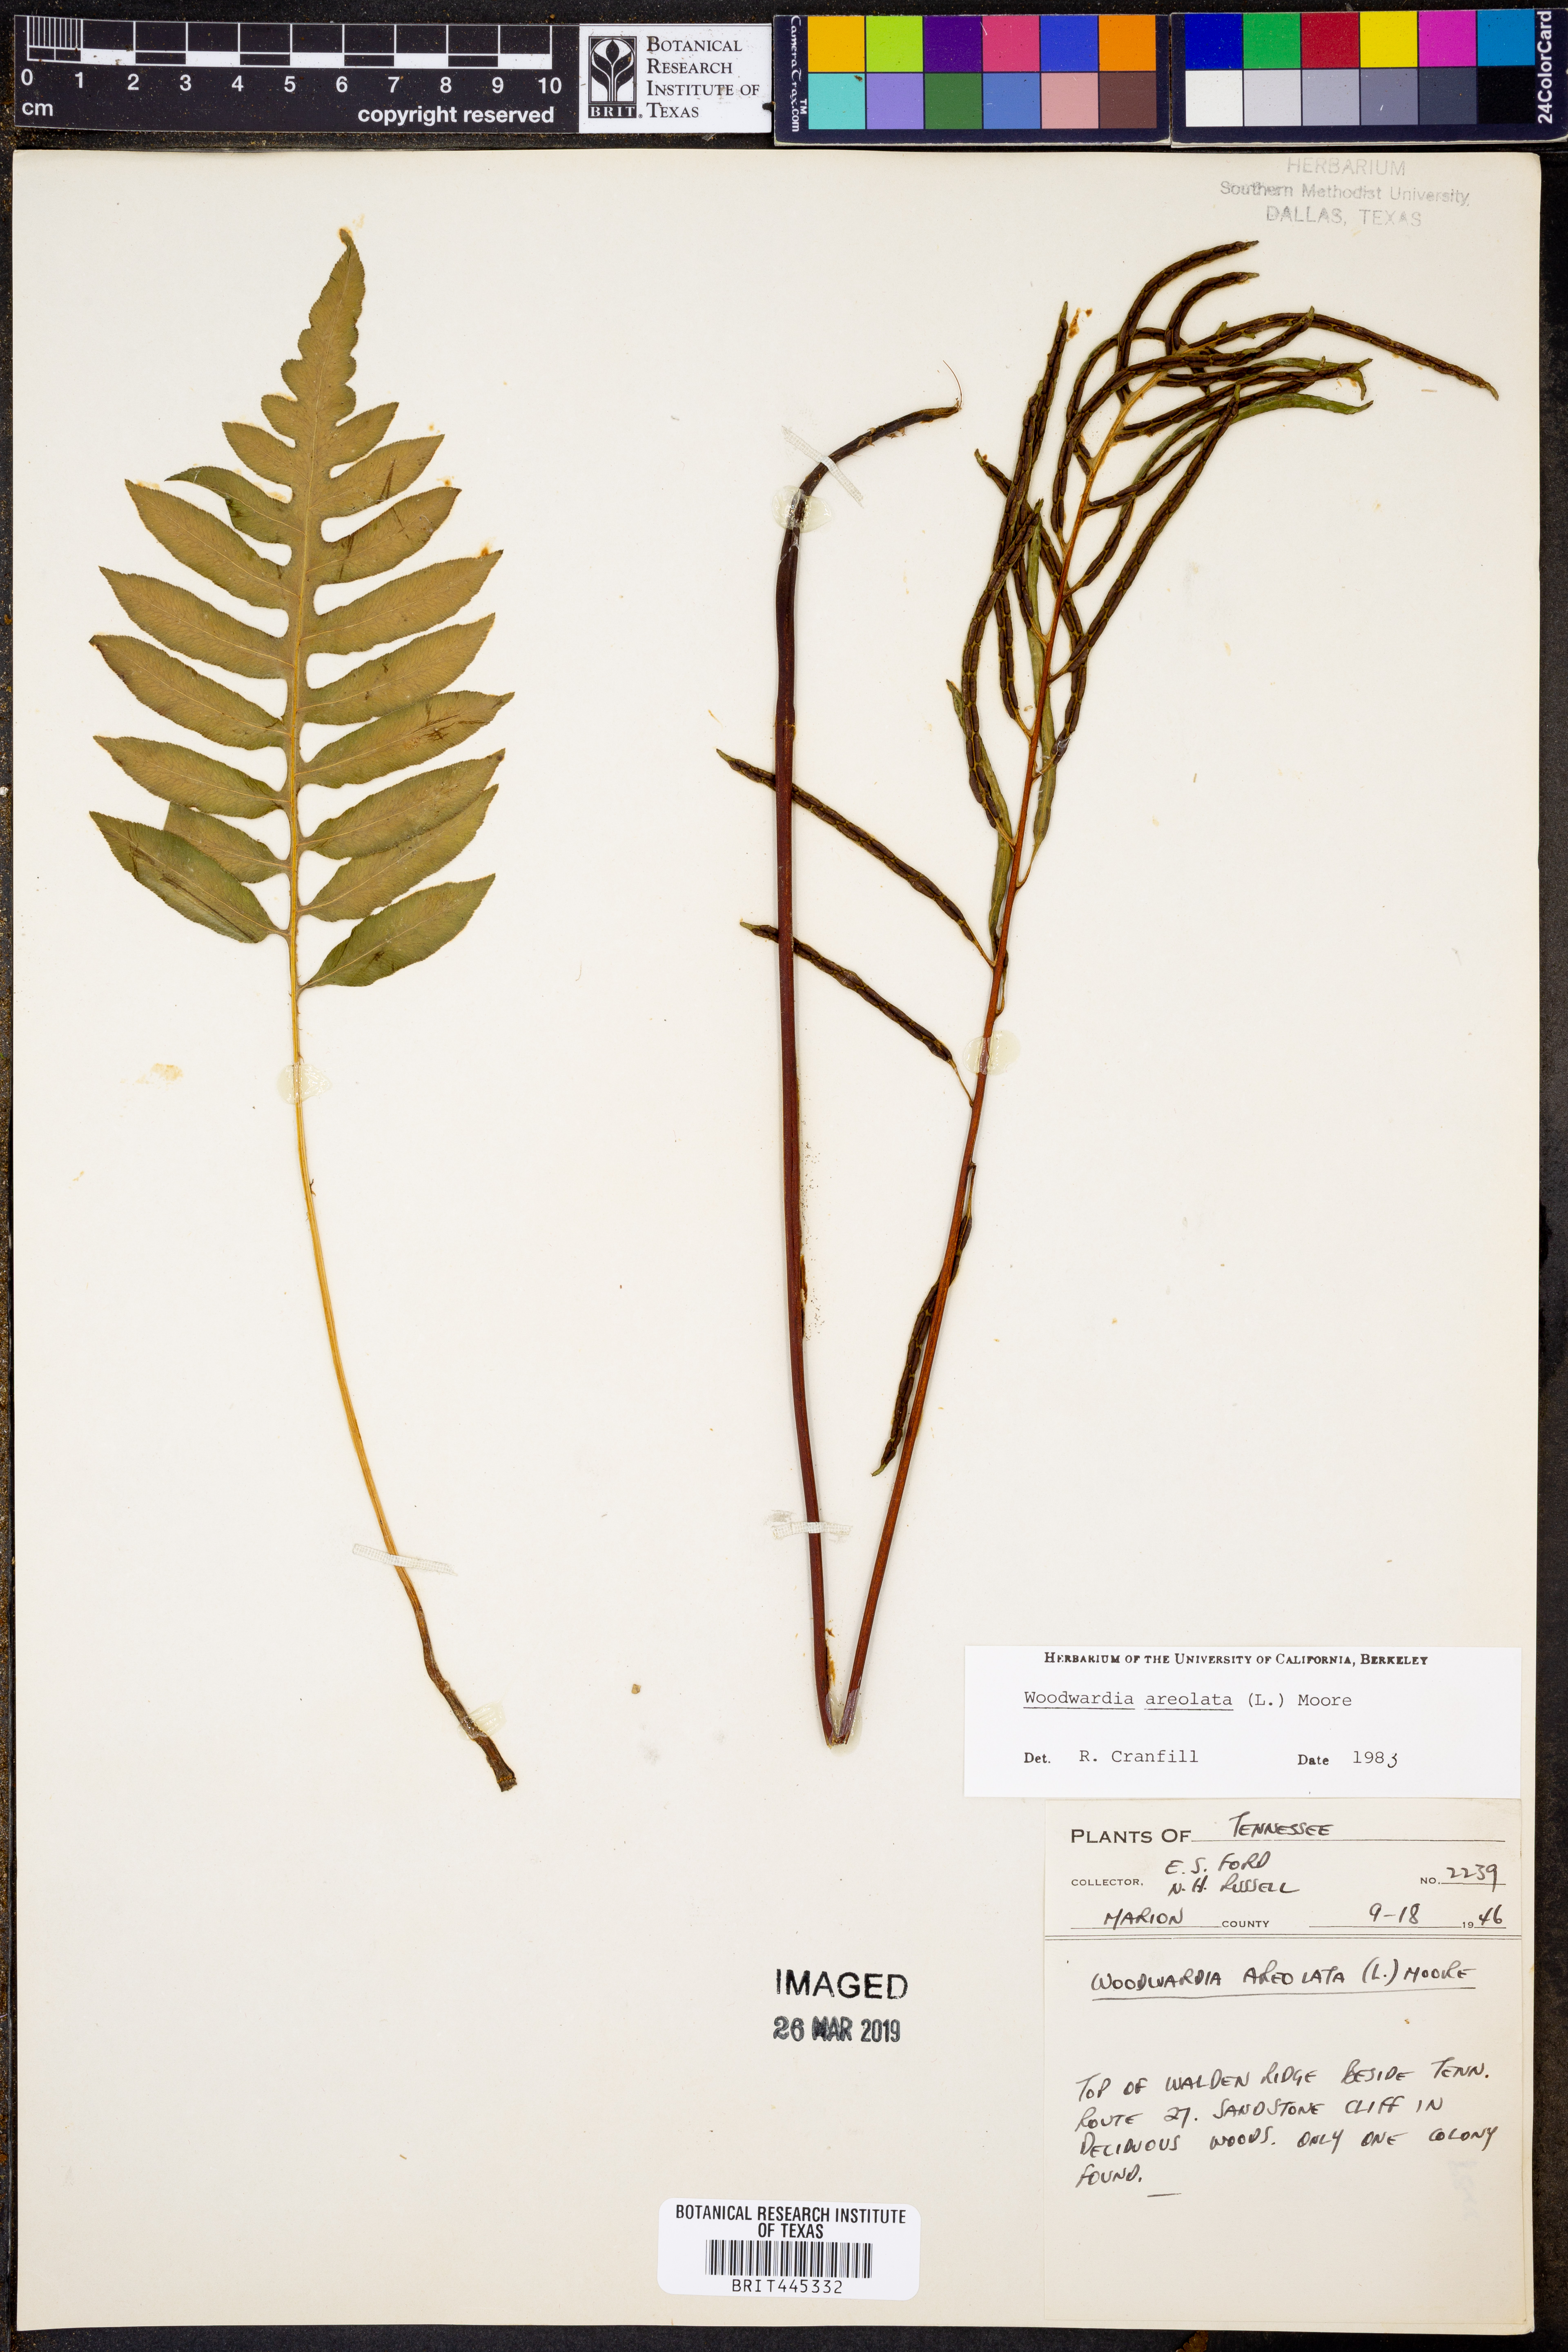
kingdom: Plantae
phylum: Tracheophyta
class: Polypodiopsida
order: Polypodiales
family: Blechnaceae
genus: Lorinseria
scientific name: Lorinseria areolata
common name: Dwarf chain fern
